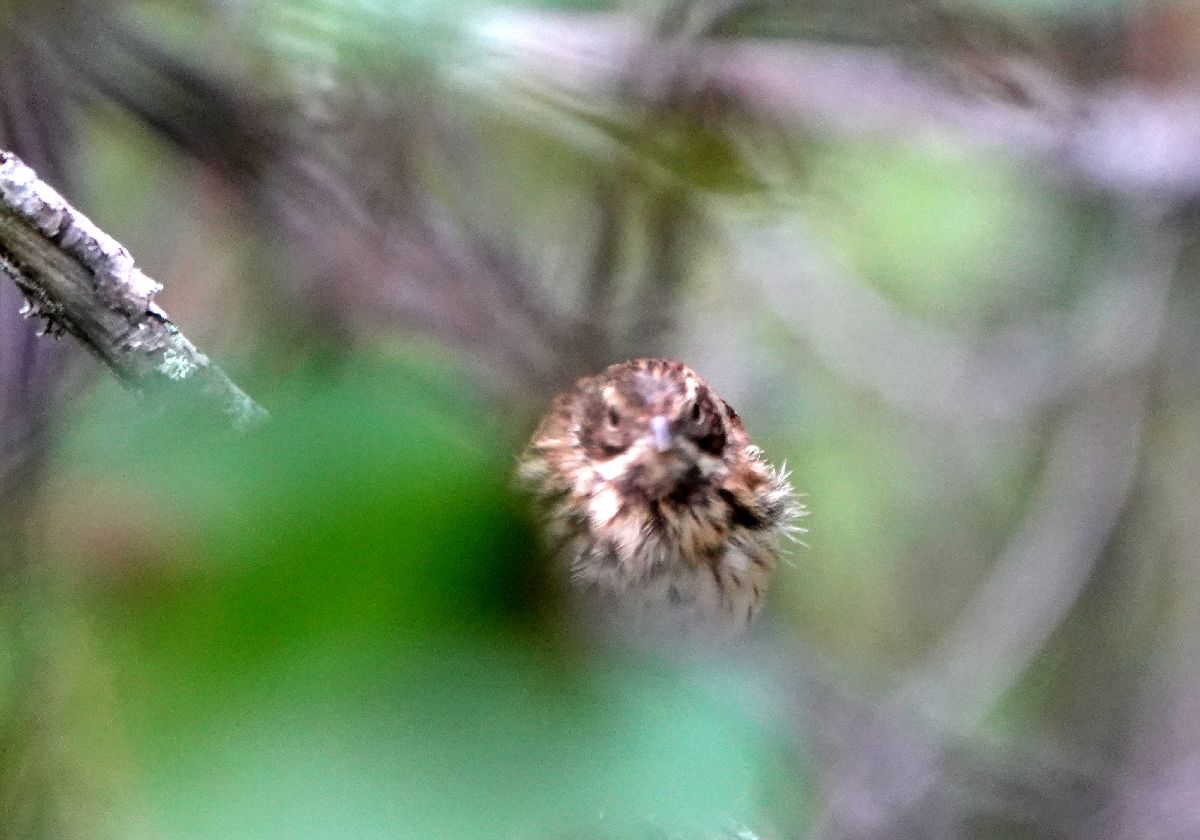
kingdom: Animalia
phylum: Chordata
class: Aves
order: Passeriformes
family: Emberizidae
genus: Emberiza
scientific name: Emberiza schoeniclus
